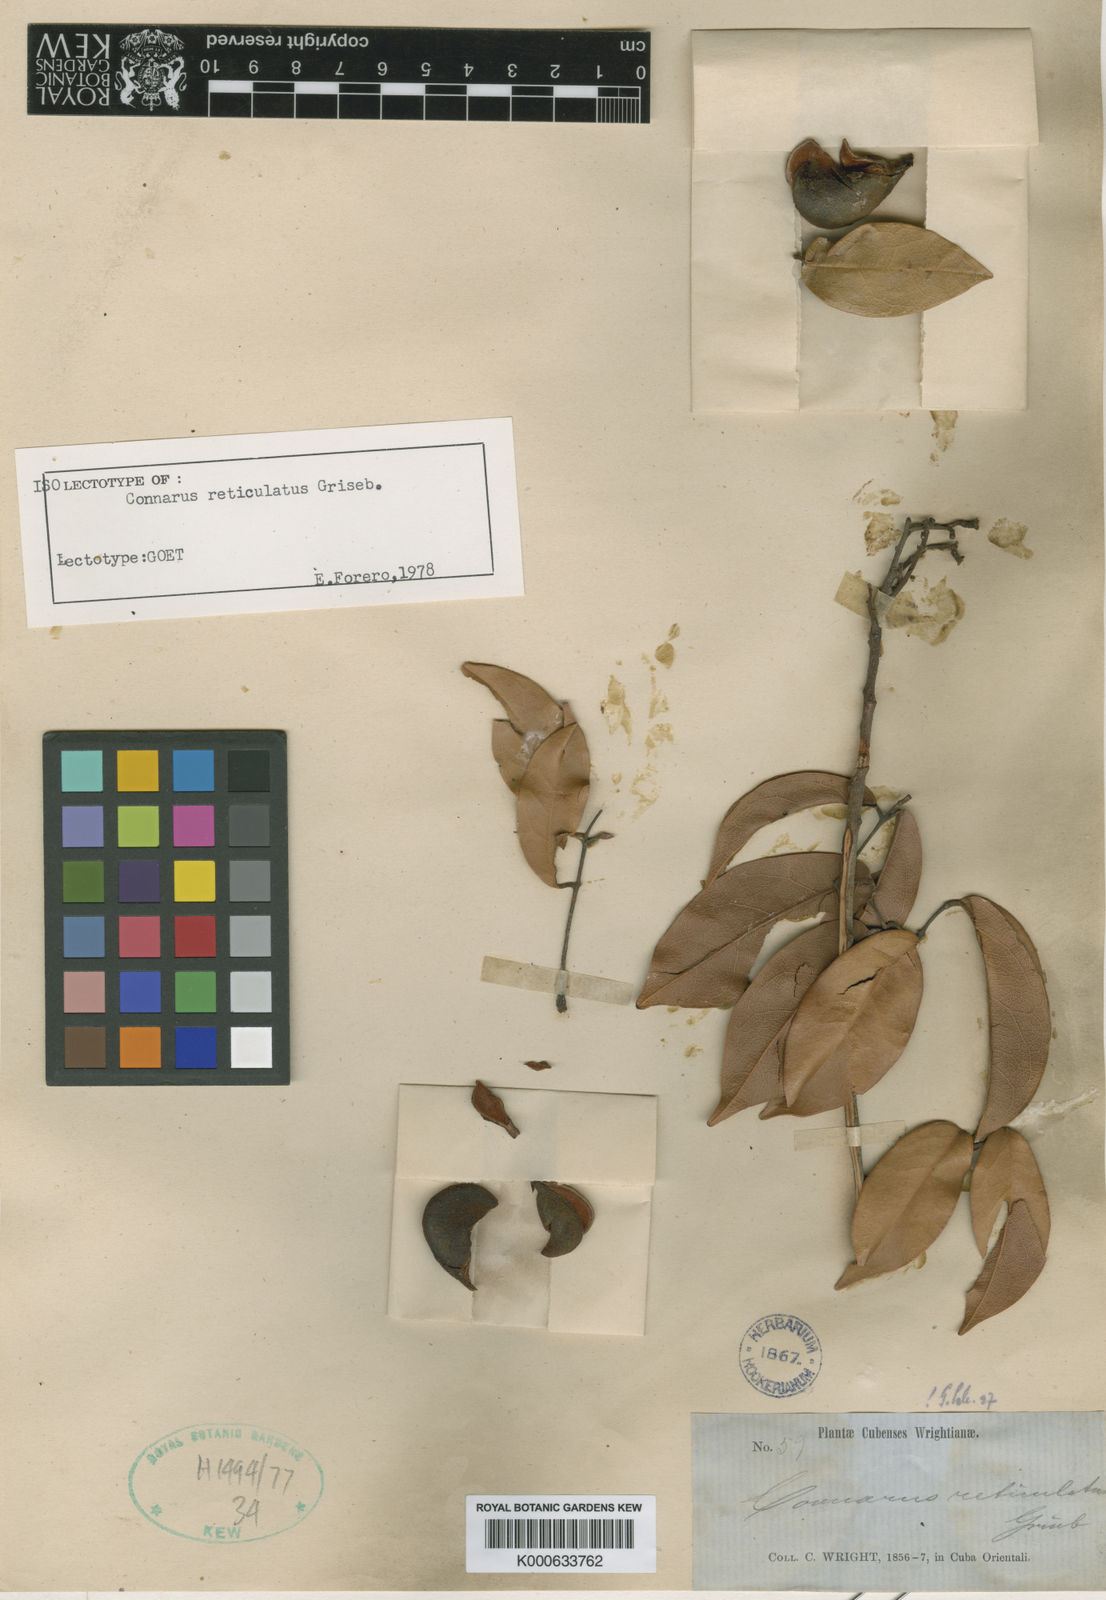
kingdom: Plantae
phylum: Tracheophyta
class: Magnoliopsida
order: Oxalidales
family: Connaraceae
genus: Connarus
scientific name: Connarus reticulatus
